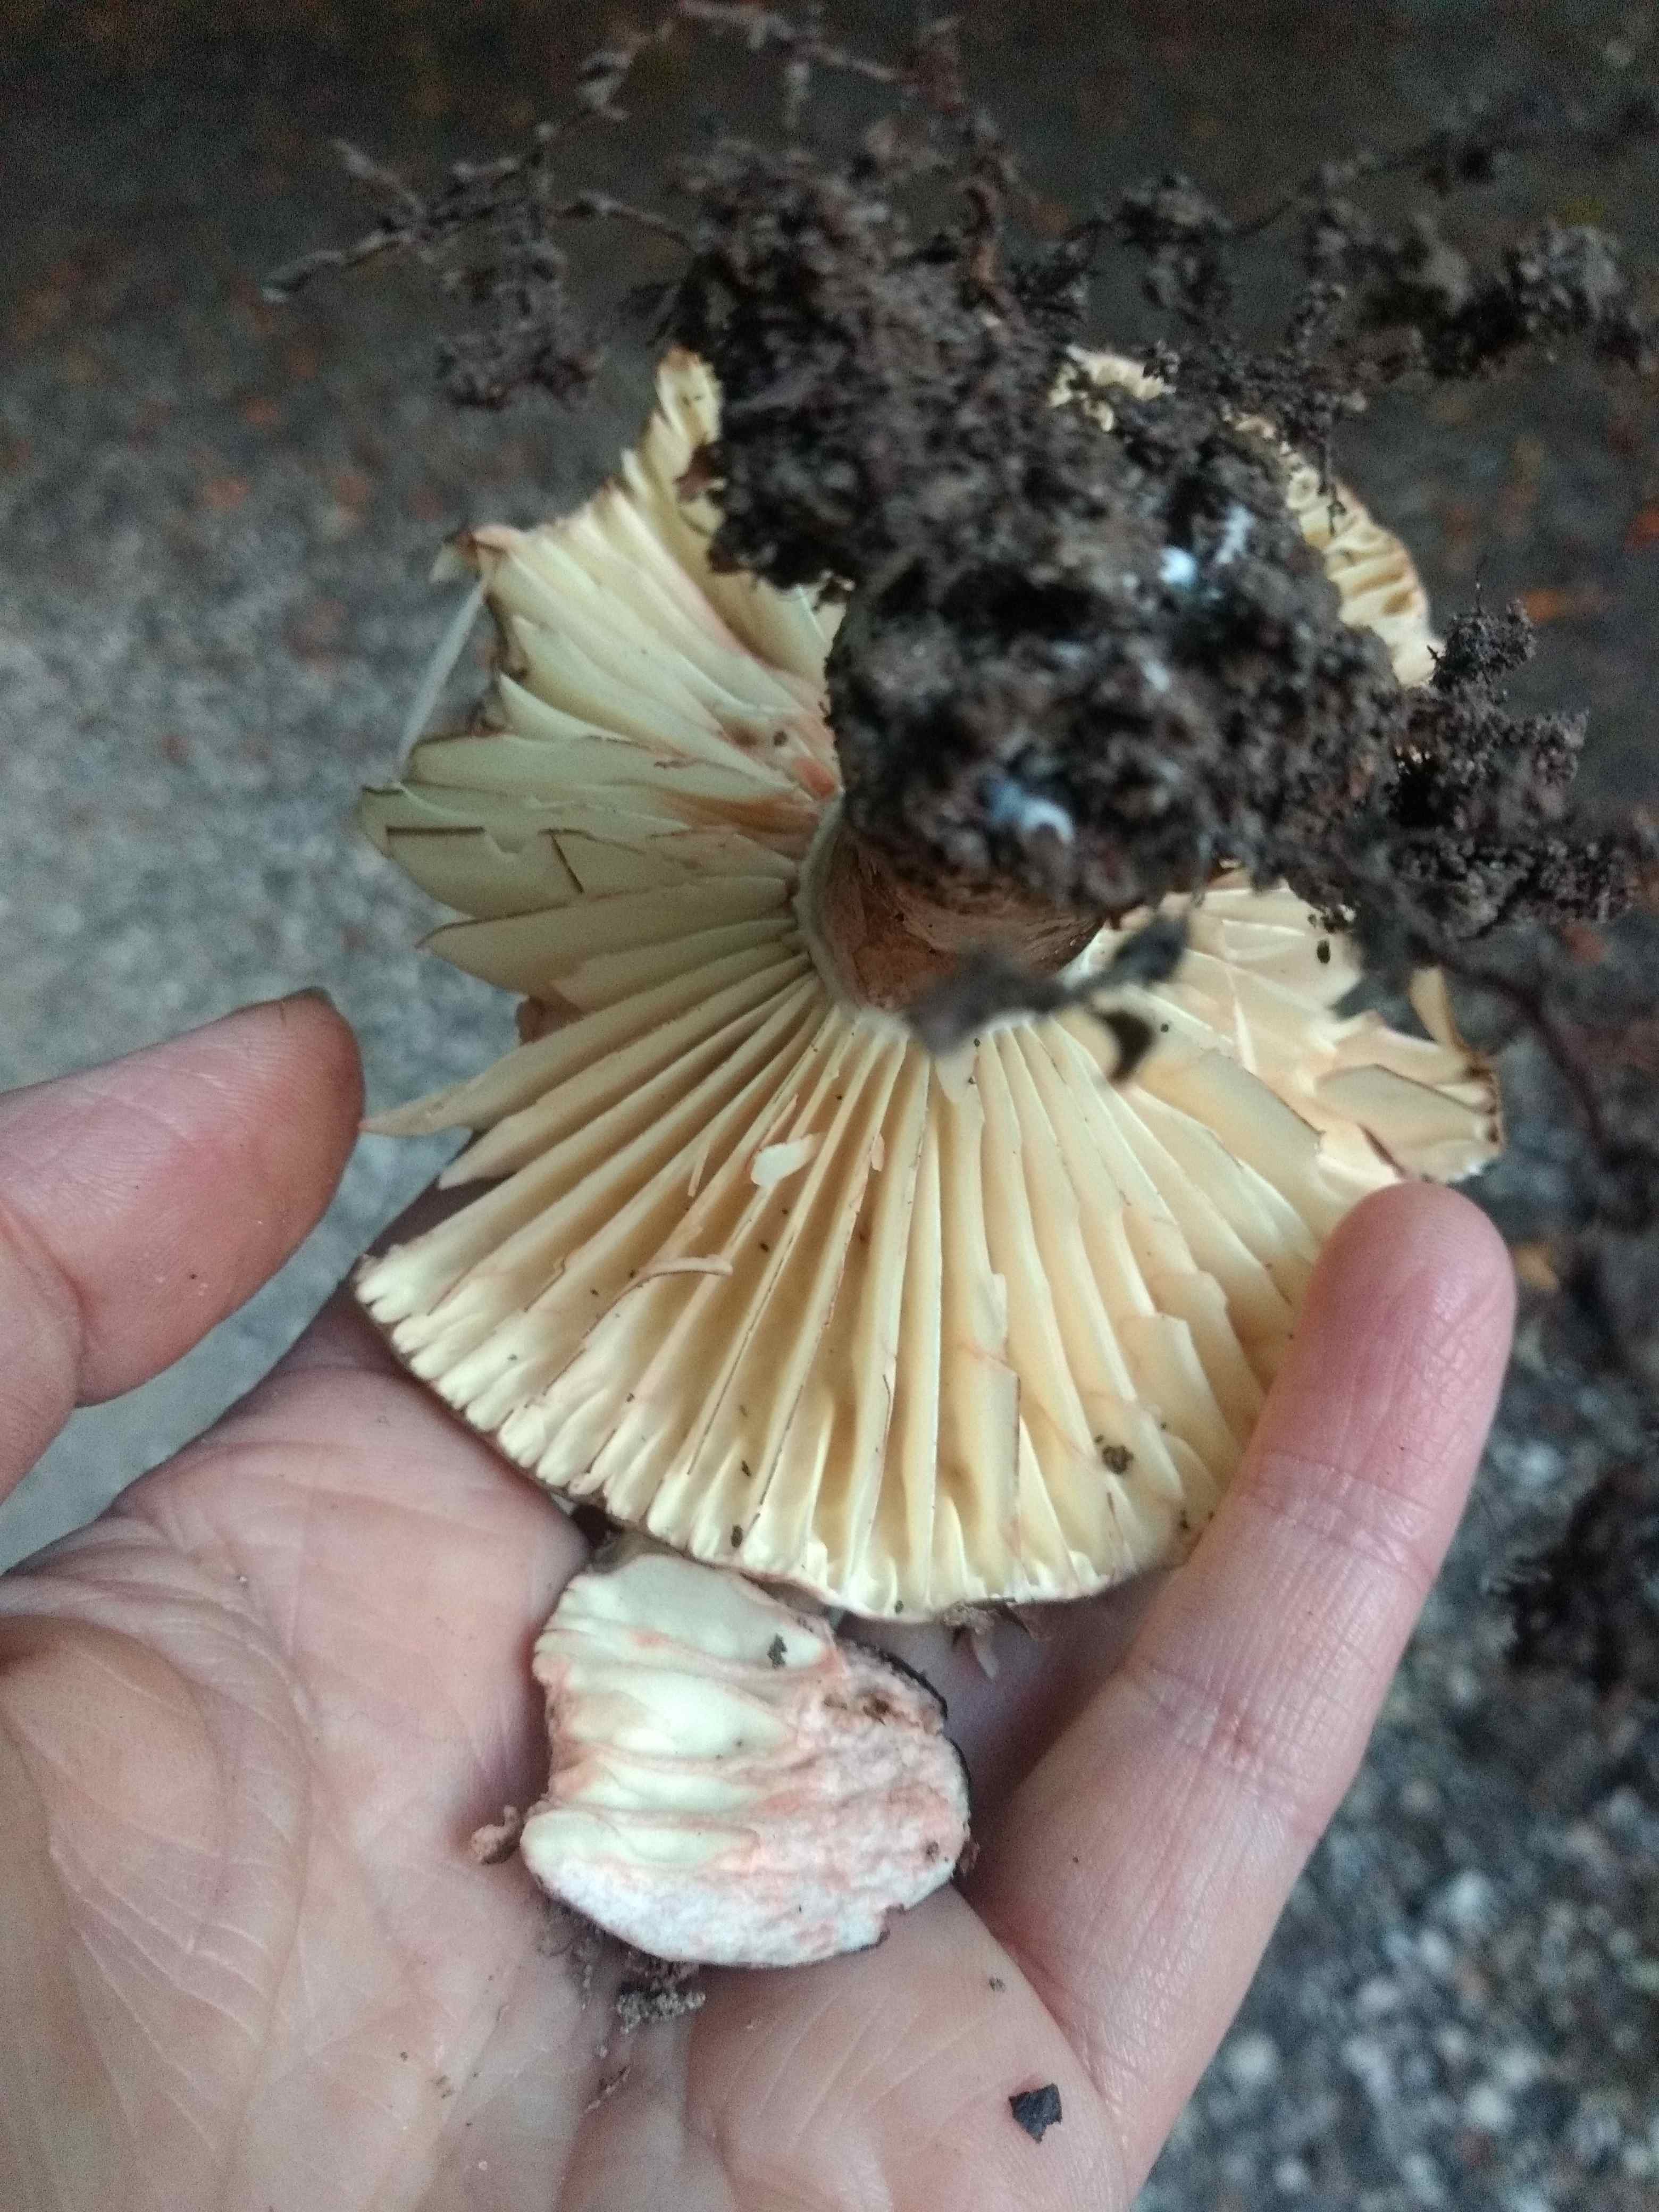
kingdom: Fungi
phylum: Basidiomycota
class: Agaricomycetes
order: Russulales
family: Russulaceae
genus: Russula
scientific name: Russula adusta
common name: sværtende skørhat
